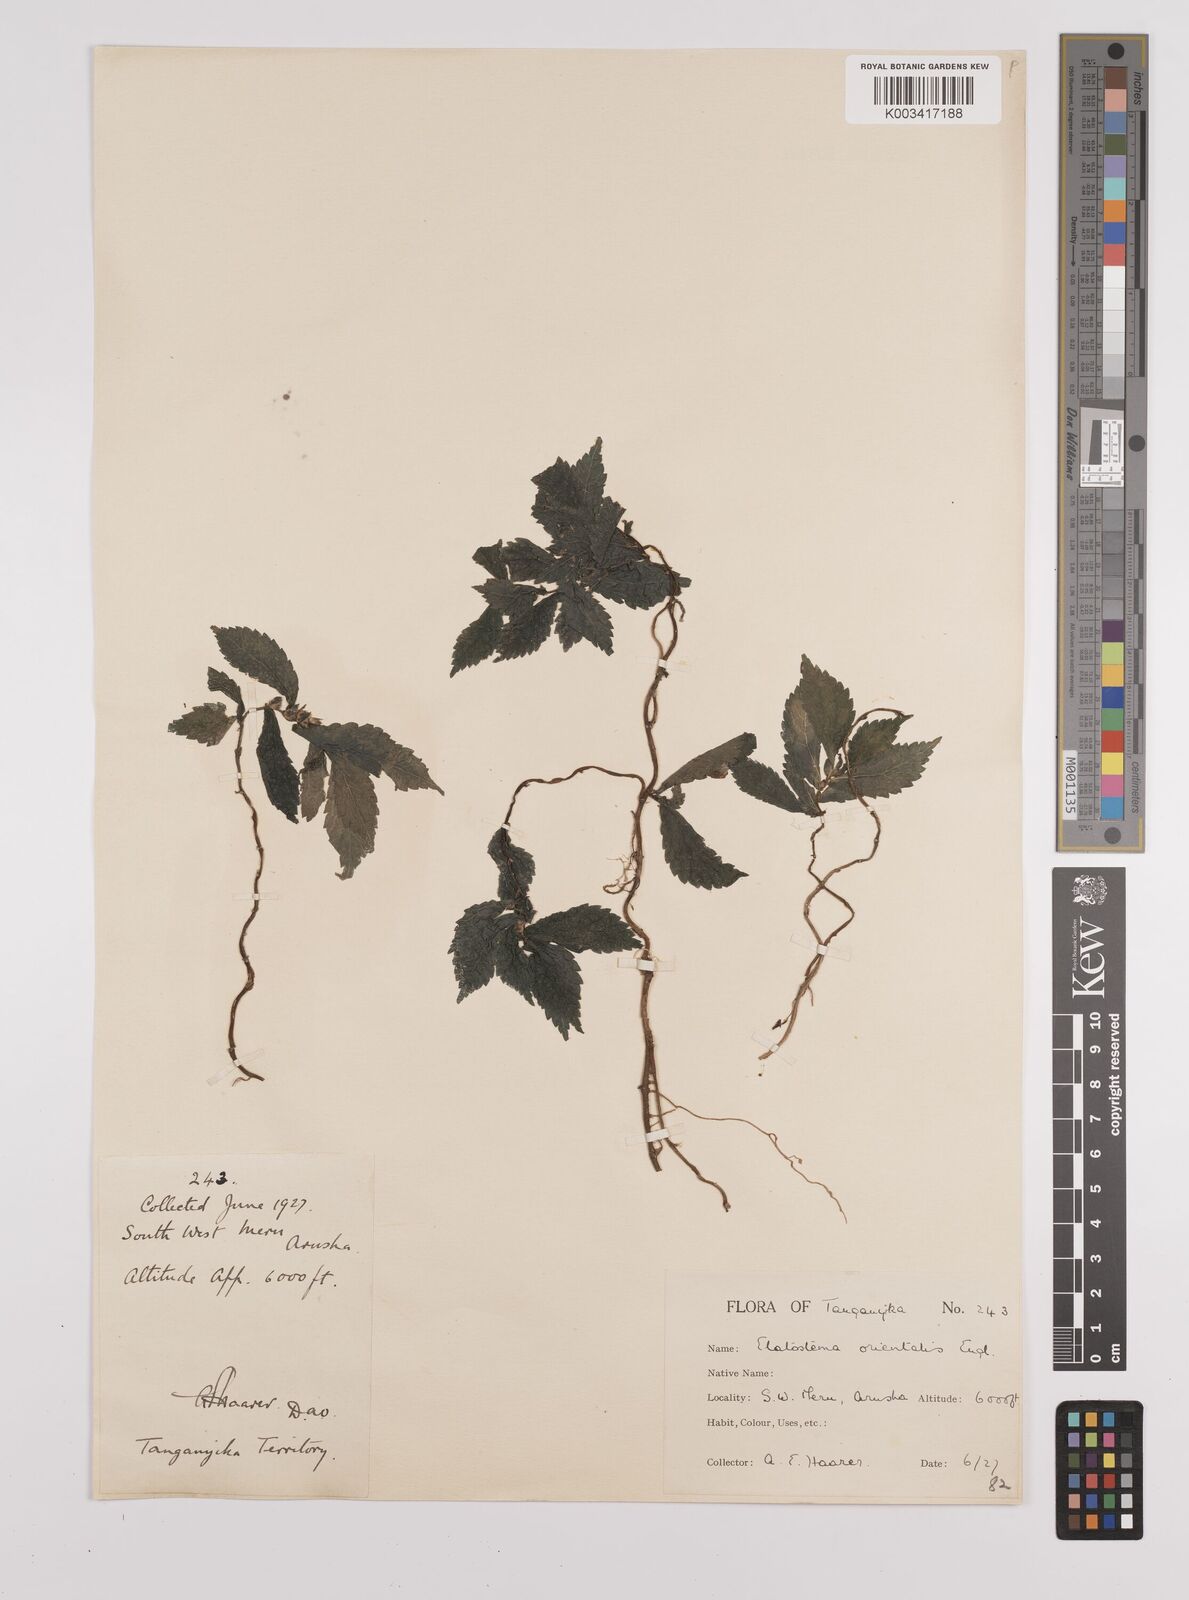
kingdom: Plantae
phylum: Tracheophyta
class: Magnoliopsida
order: Rosales
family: Urticaceae
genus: Elatostema
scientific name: Elatostema monticola
